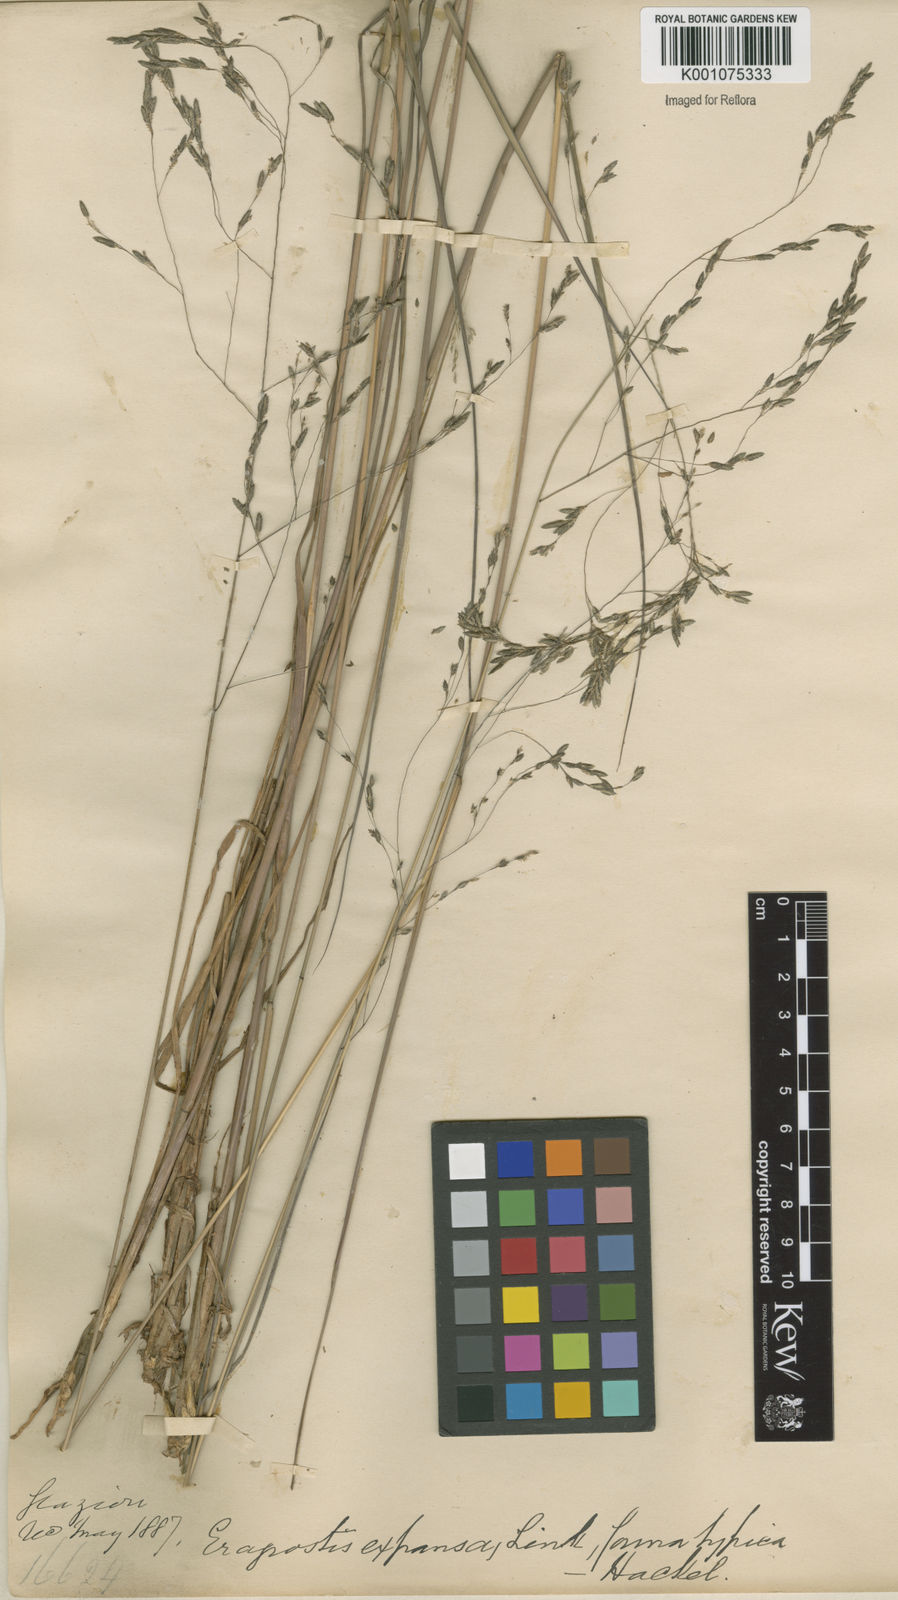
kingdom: Plantae
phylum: Tracheophyta
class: Liliopsida
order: Poales
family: Poaceae
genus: Eragrostis
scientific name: Eragrostis bahiensis
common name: Bahia lovegrass
